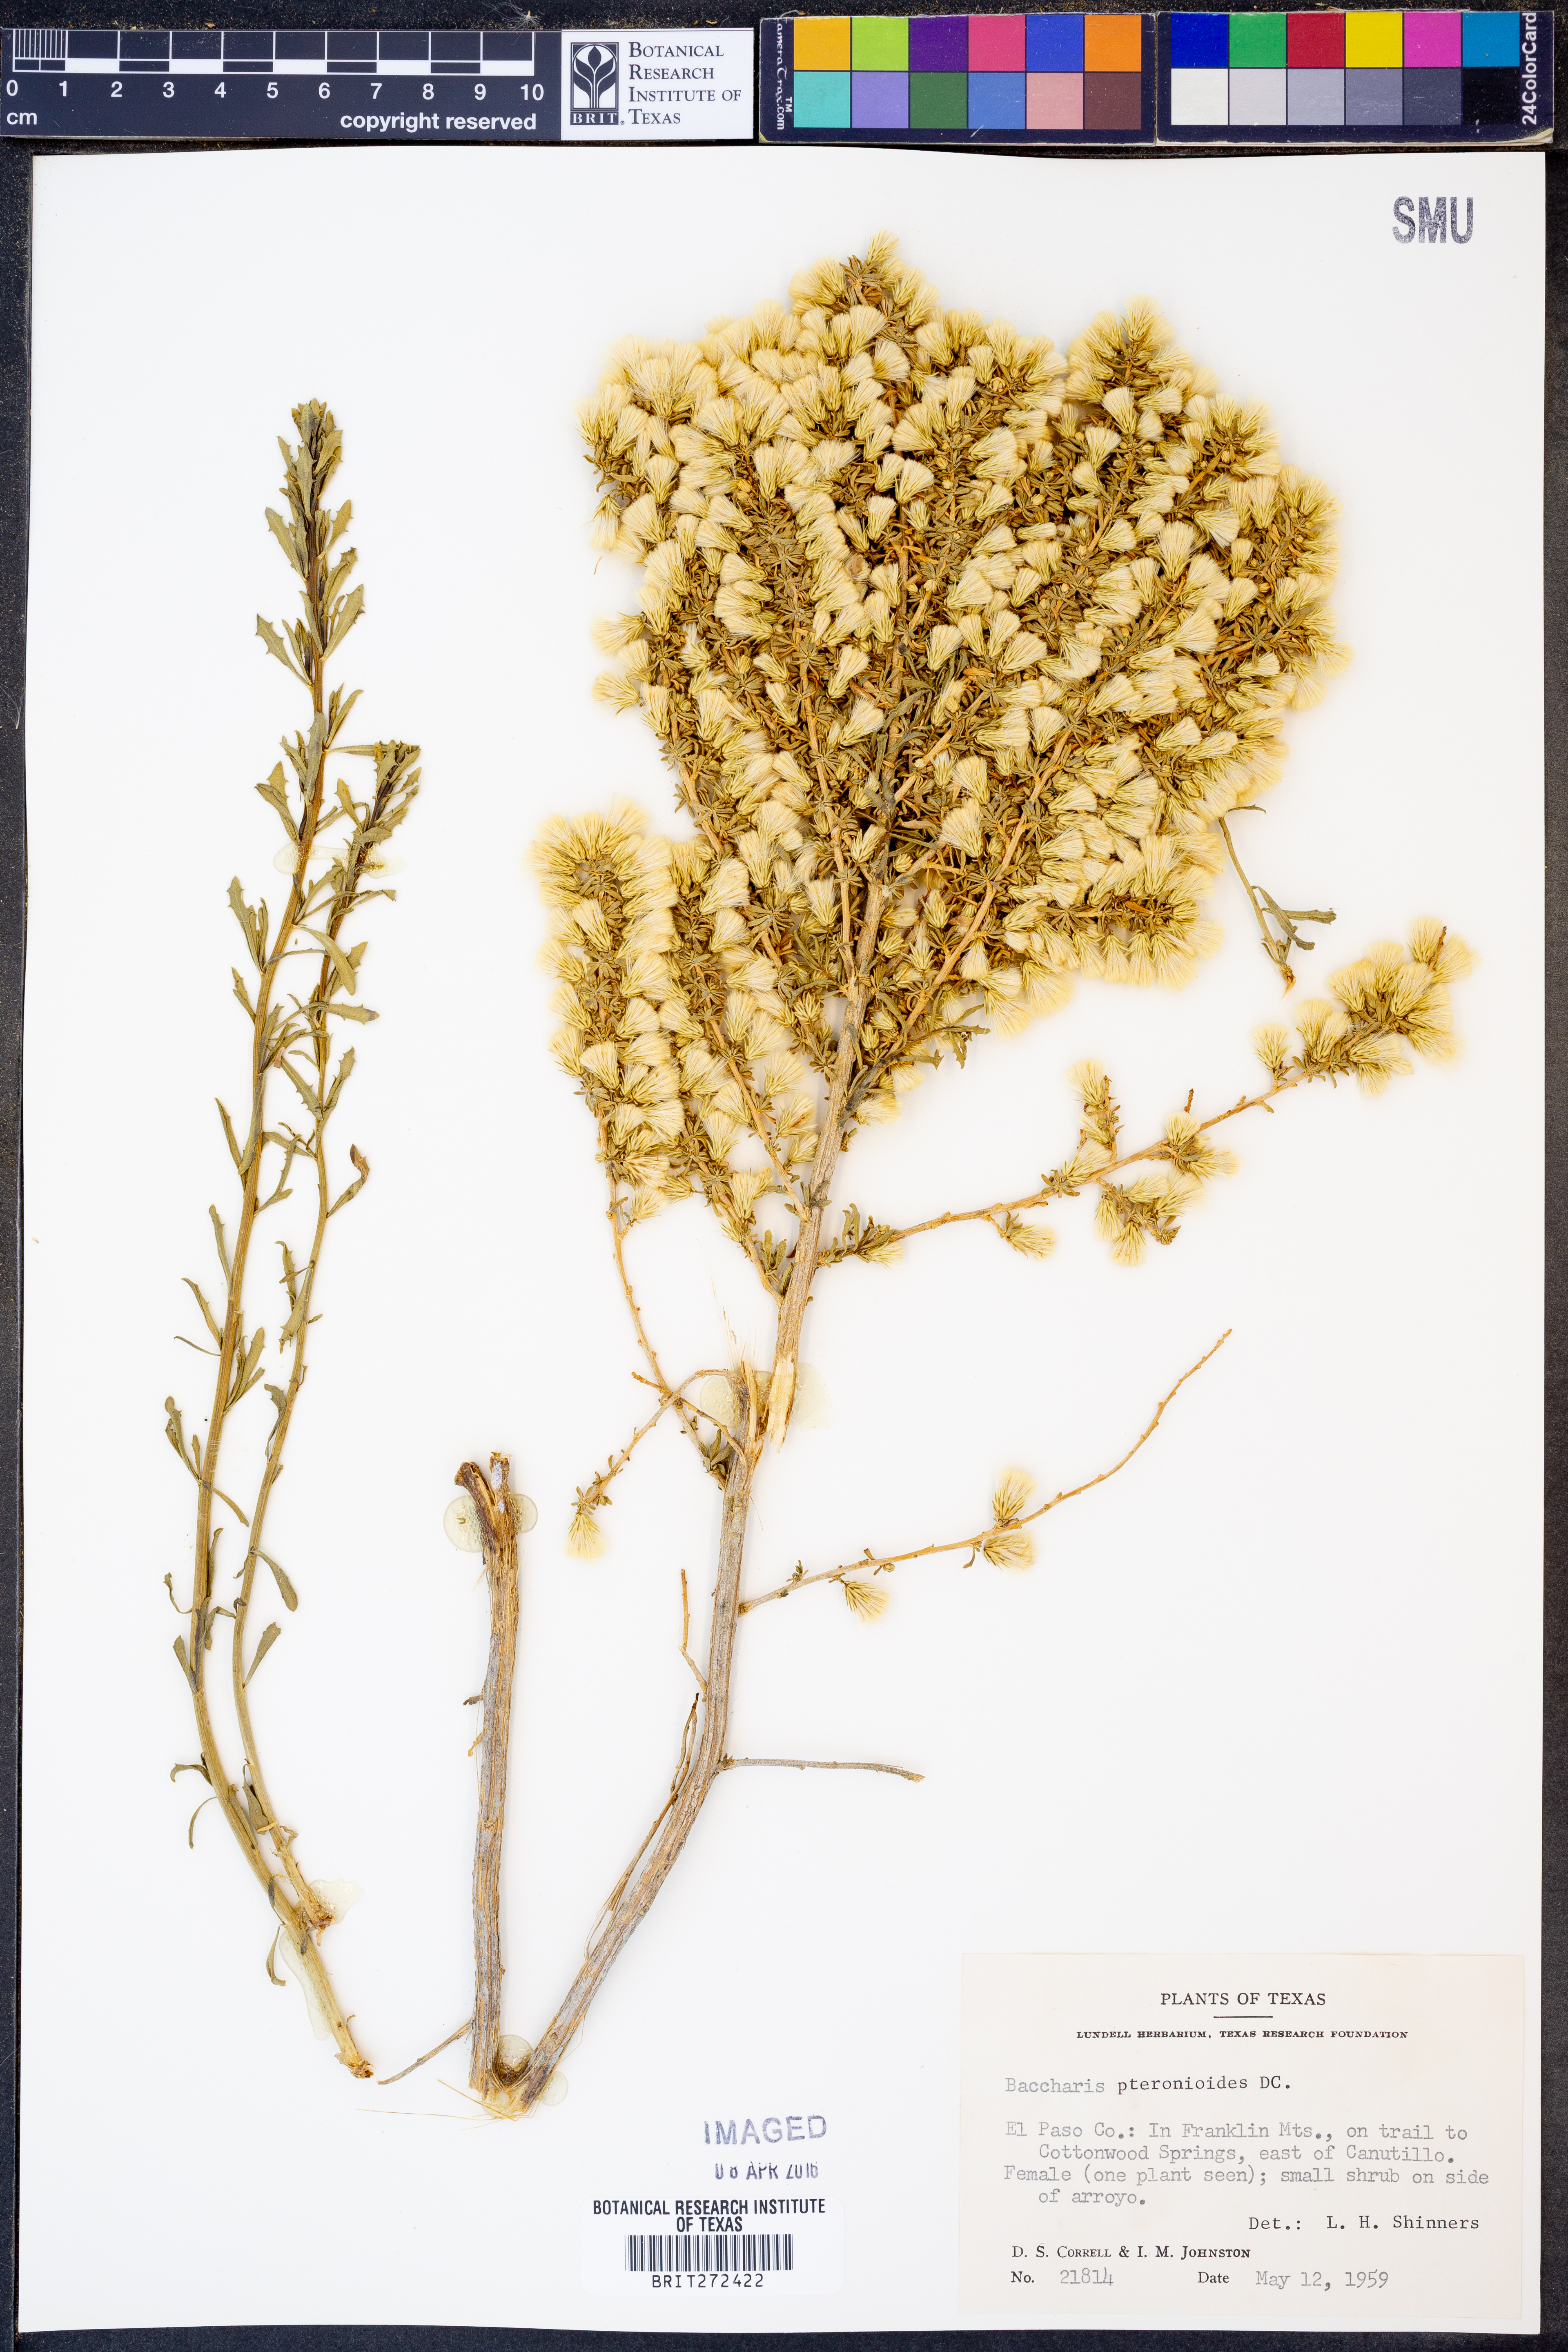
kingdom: Plantae
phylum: Tracheophyta
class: Magnoliopsida
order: Asterales
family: Asteraceae
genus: Baccharis
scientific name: Baccharis pteronioides
